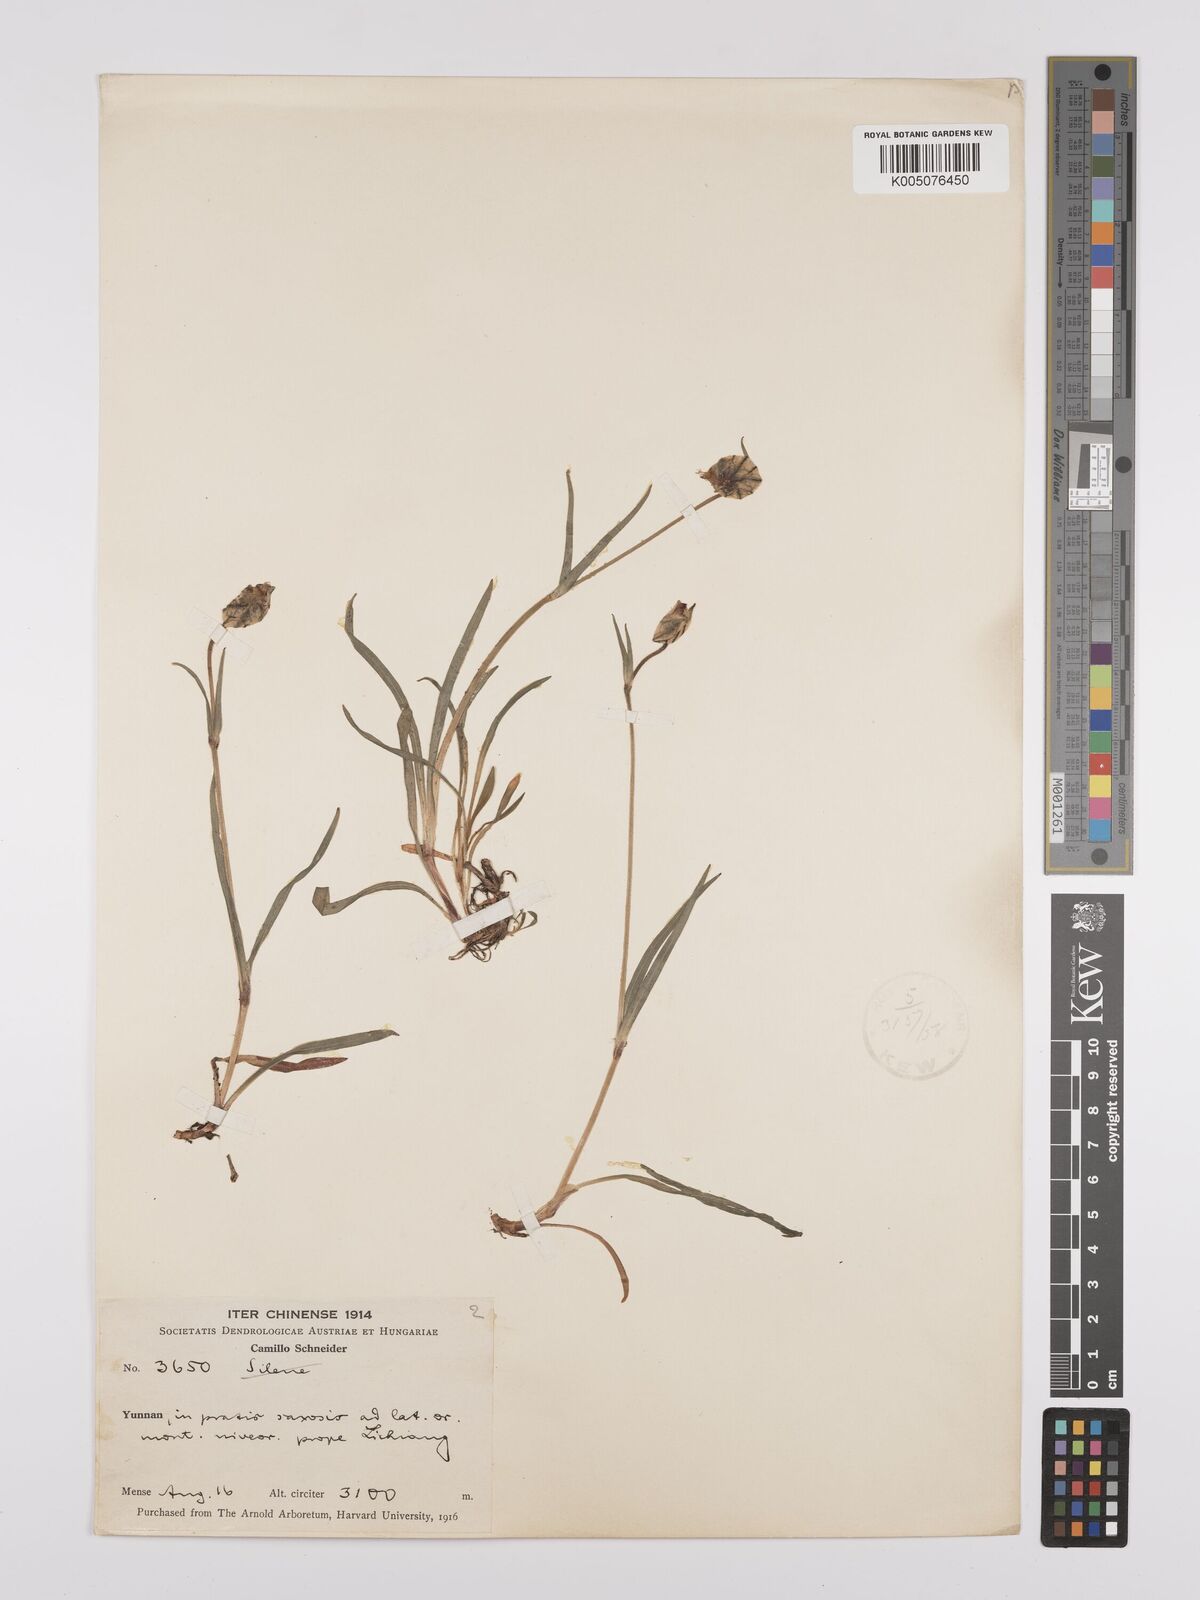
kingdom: Plantae
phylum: Tracheophyta
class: Magnoliopsida
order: Caryophyllales
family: Caryophyllaceae
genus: Silene
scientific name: Silene
